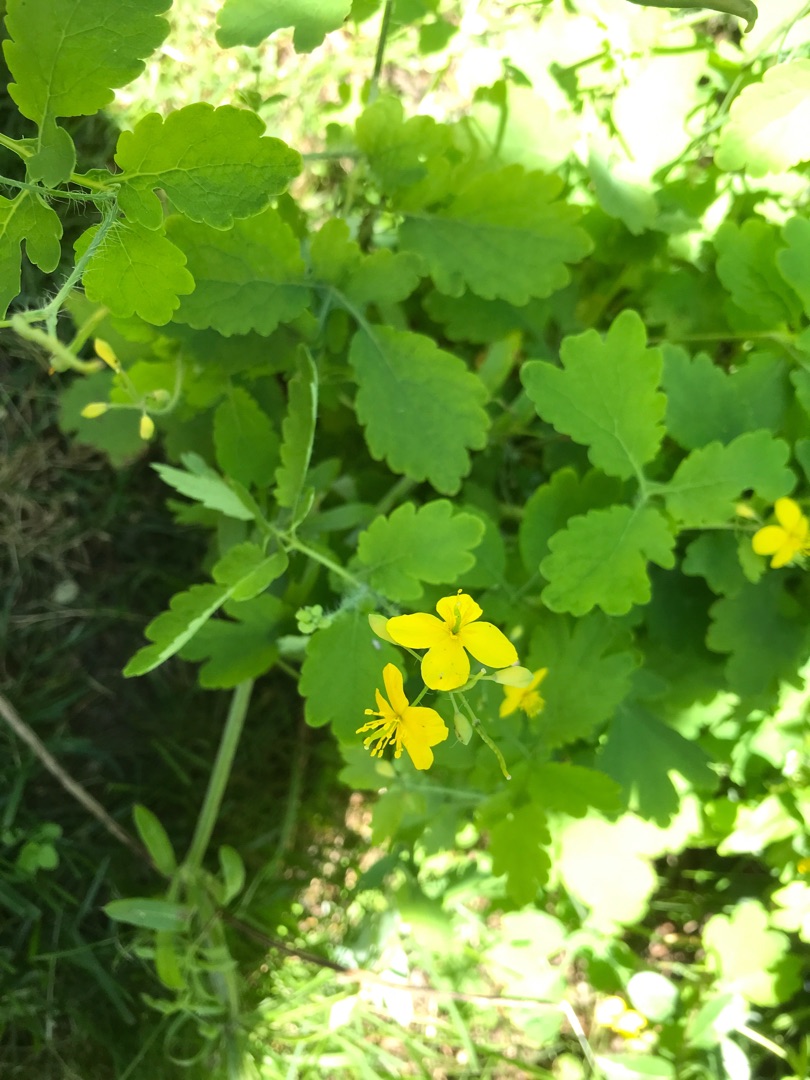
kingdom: Plantae
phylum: Tracheophyta
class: Magnoliopsida
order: Ranunculales
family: Papaveraceae
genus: Chelidonium
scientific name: Chelidonium majus
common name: Svaleurt
